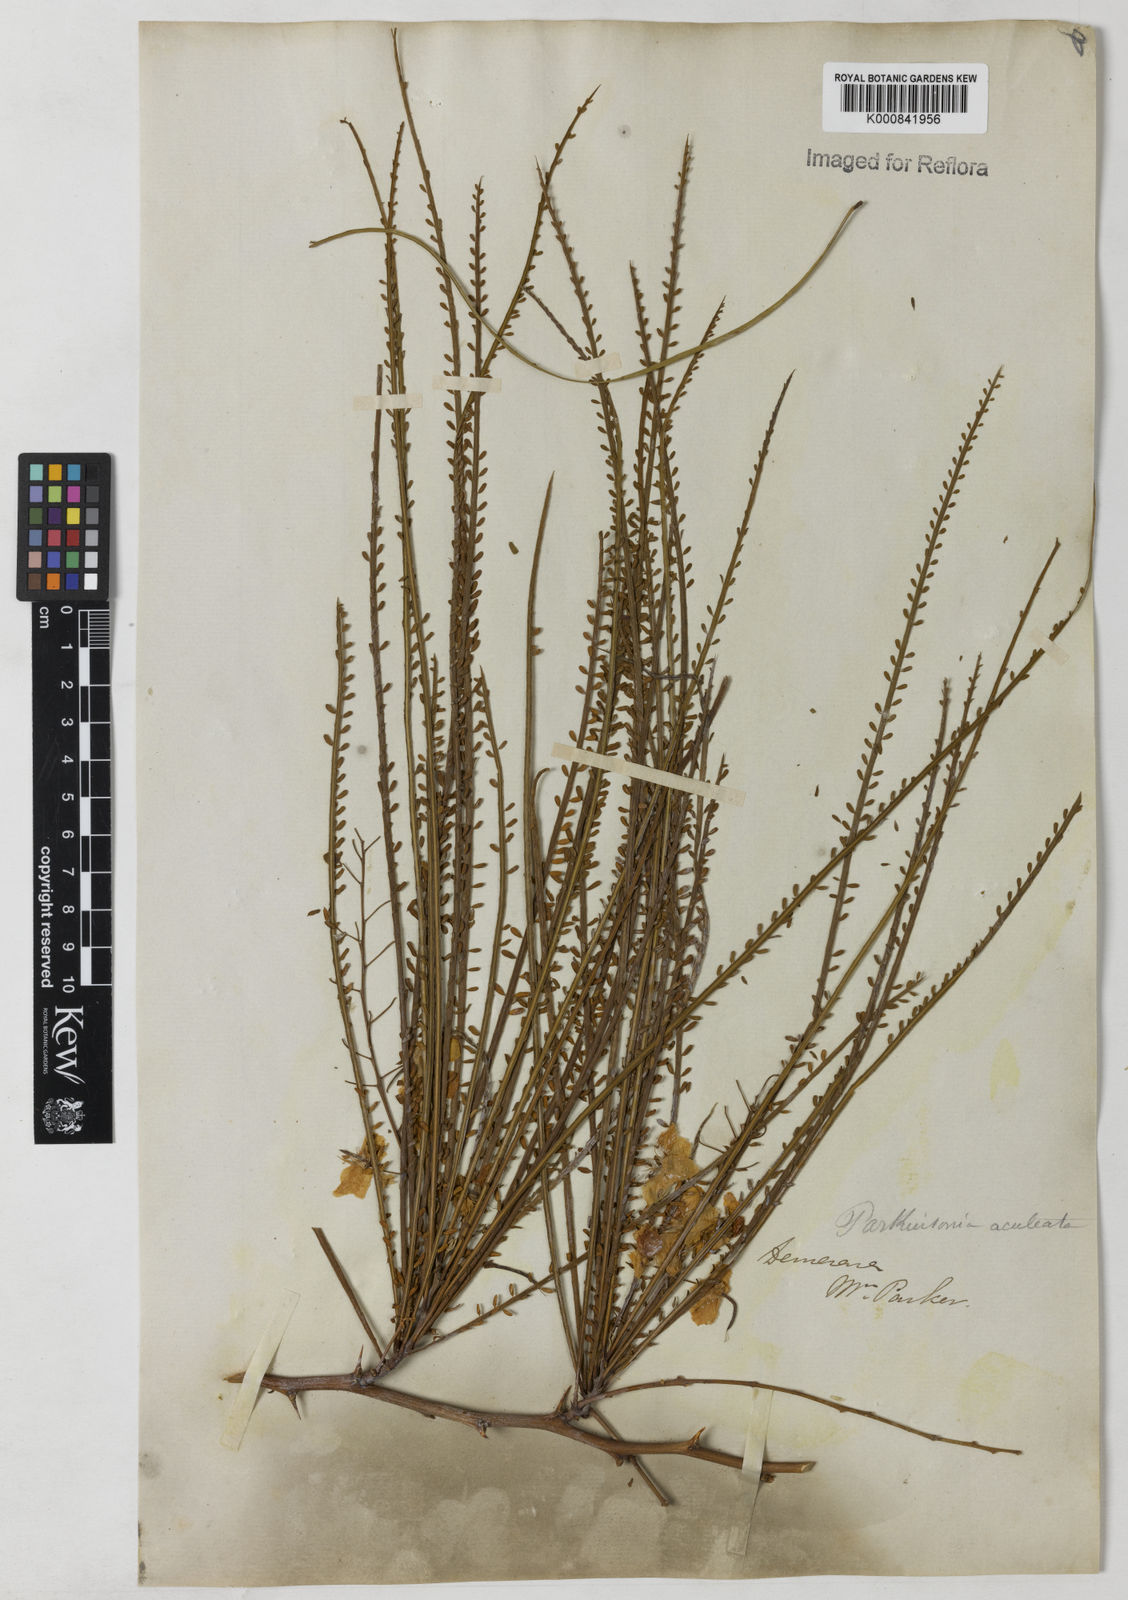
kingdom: Plantae
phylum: Tracheophyta
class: Magnoliopsida
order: Fabales
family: Fabaceae
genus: Parkinsonia
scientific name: Parkinsonia aculeata
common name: Jerusalem thorn
